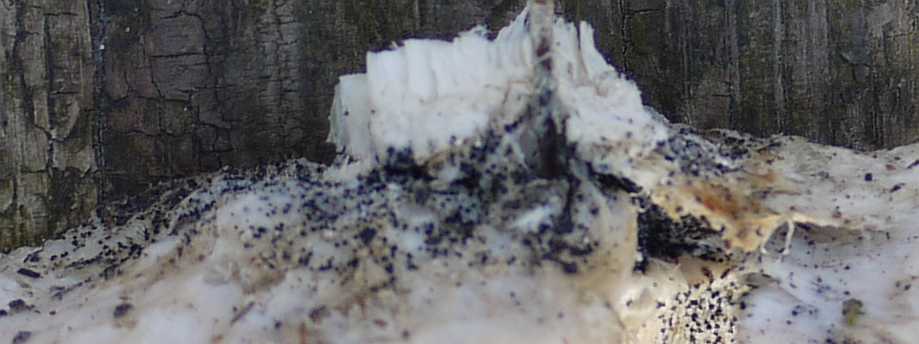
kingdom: Fungi
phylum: Ascomycota
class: Sordariomycetes
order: Ophiostomatales
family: Ophiostomataceae
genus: Sporothrix
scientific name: Sporothrix polyporicola
